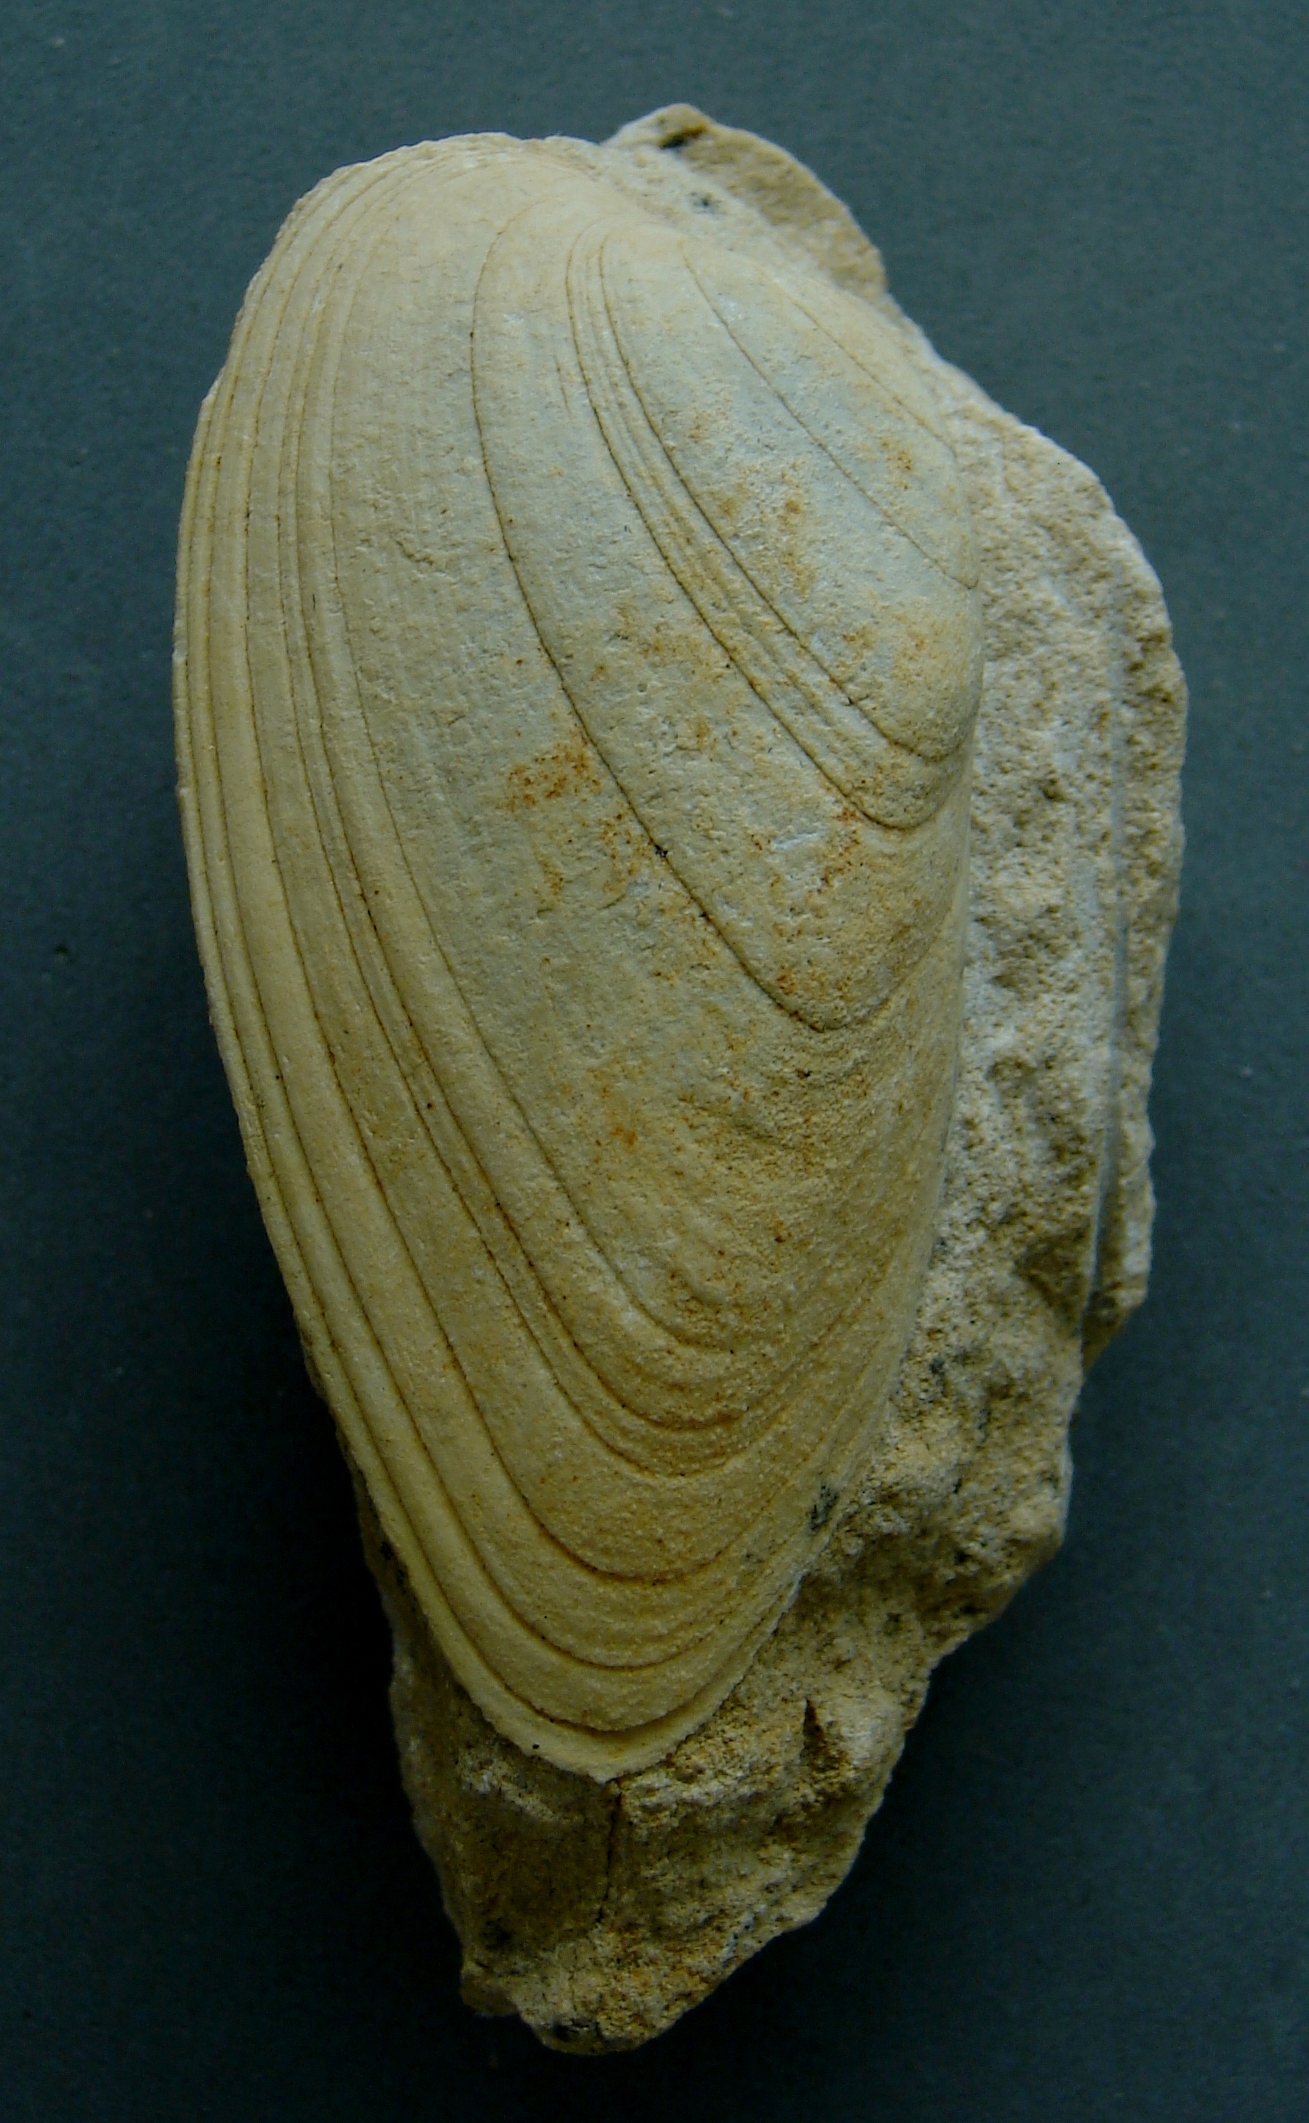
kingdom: Animalia
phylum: Mollusca
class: Bivalvia
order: Carditida
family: Cardiniidae
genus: Cardinia
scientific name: Cardinia
